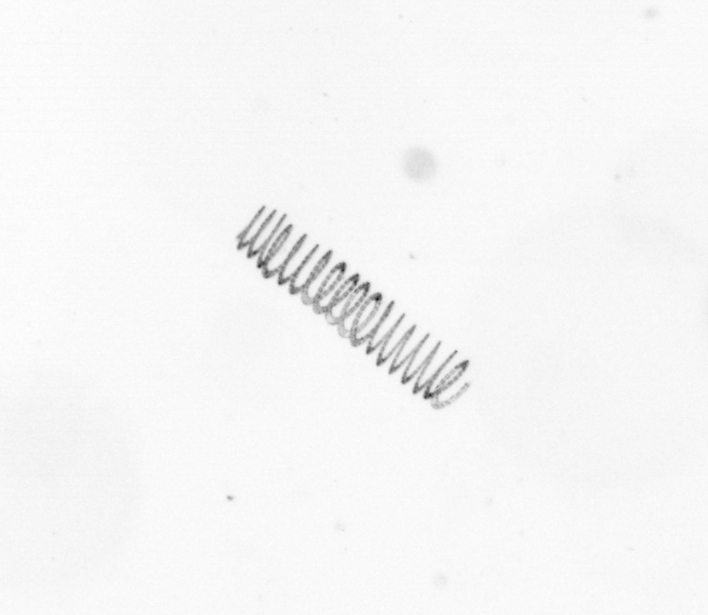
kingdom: Chromista
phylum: Ochrophyta
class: Bacillariophyceae
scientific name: Bacillariophyceae
